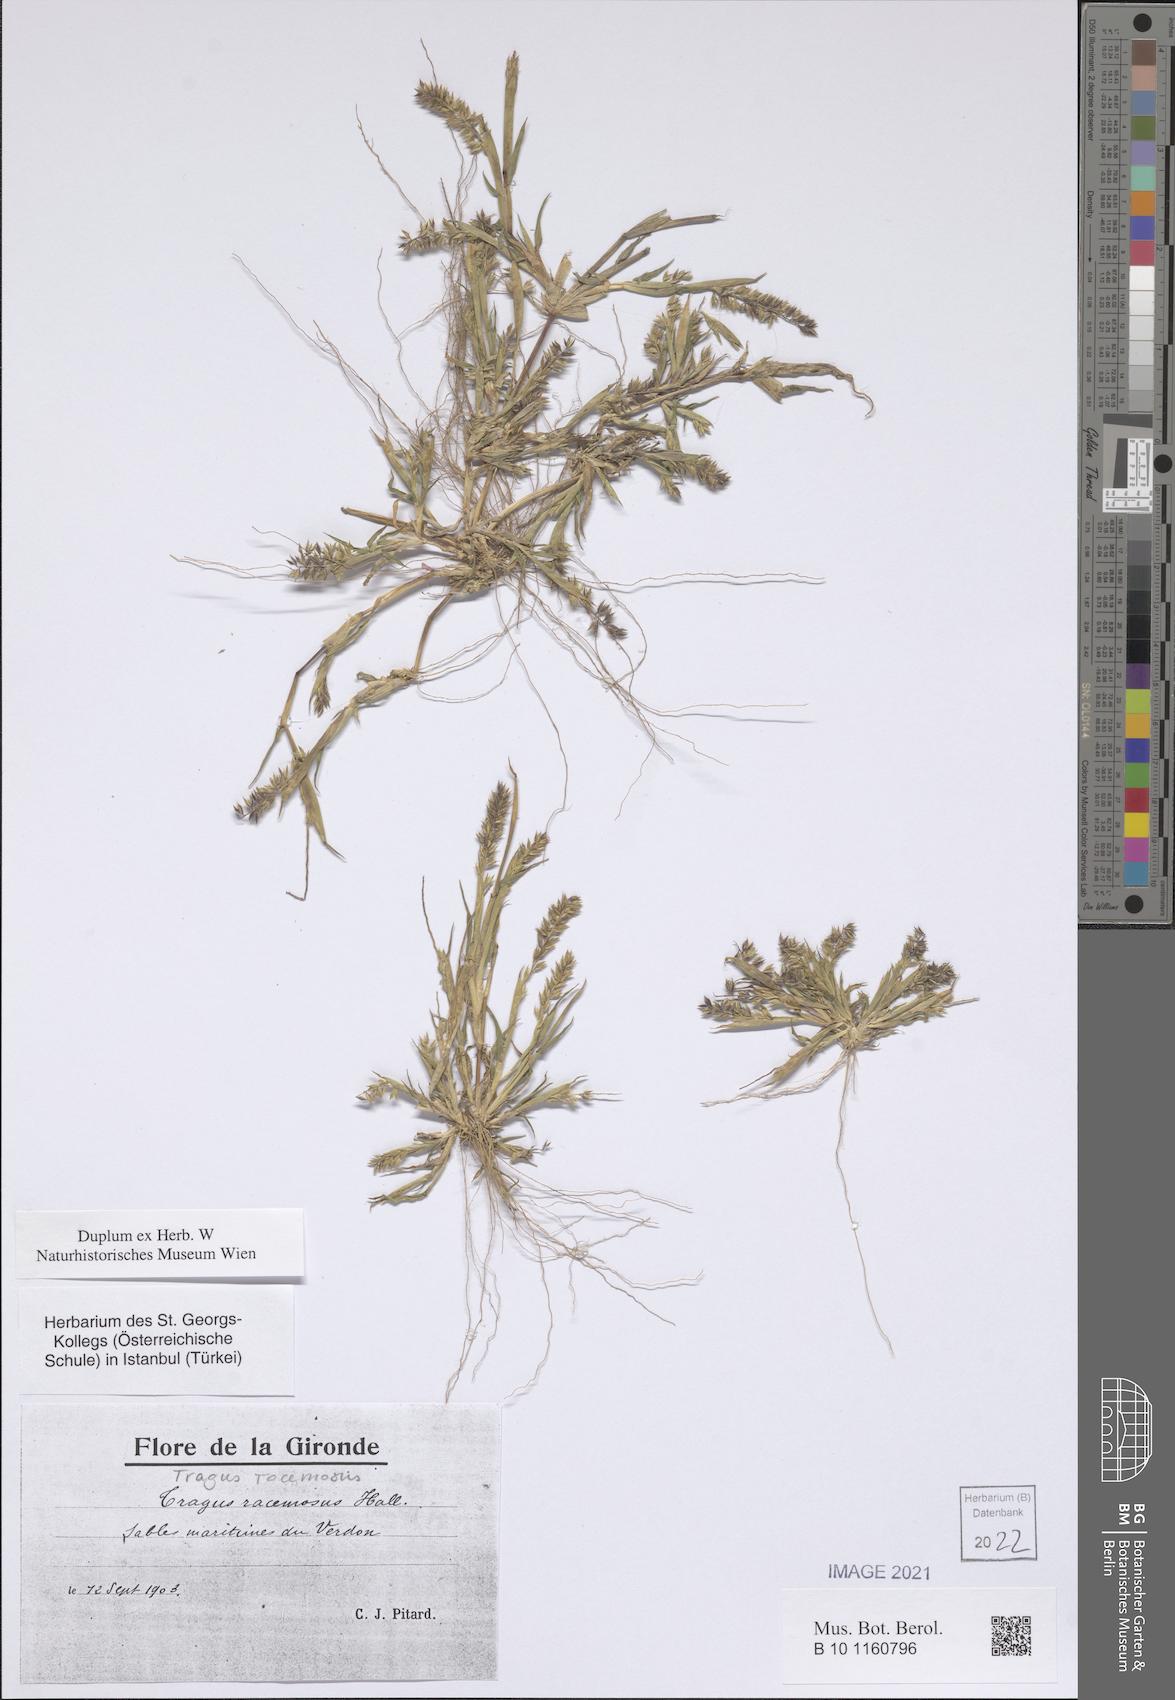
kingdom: Plantae
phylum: Tracheophyta
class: Liliopsida
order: Poales
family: Poaceae
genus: Tragus
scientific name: Tragus racemosus
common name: European bur-grass
